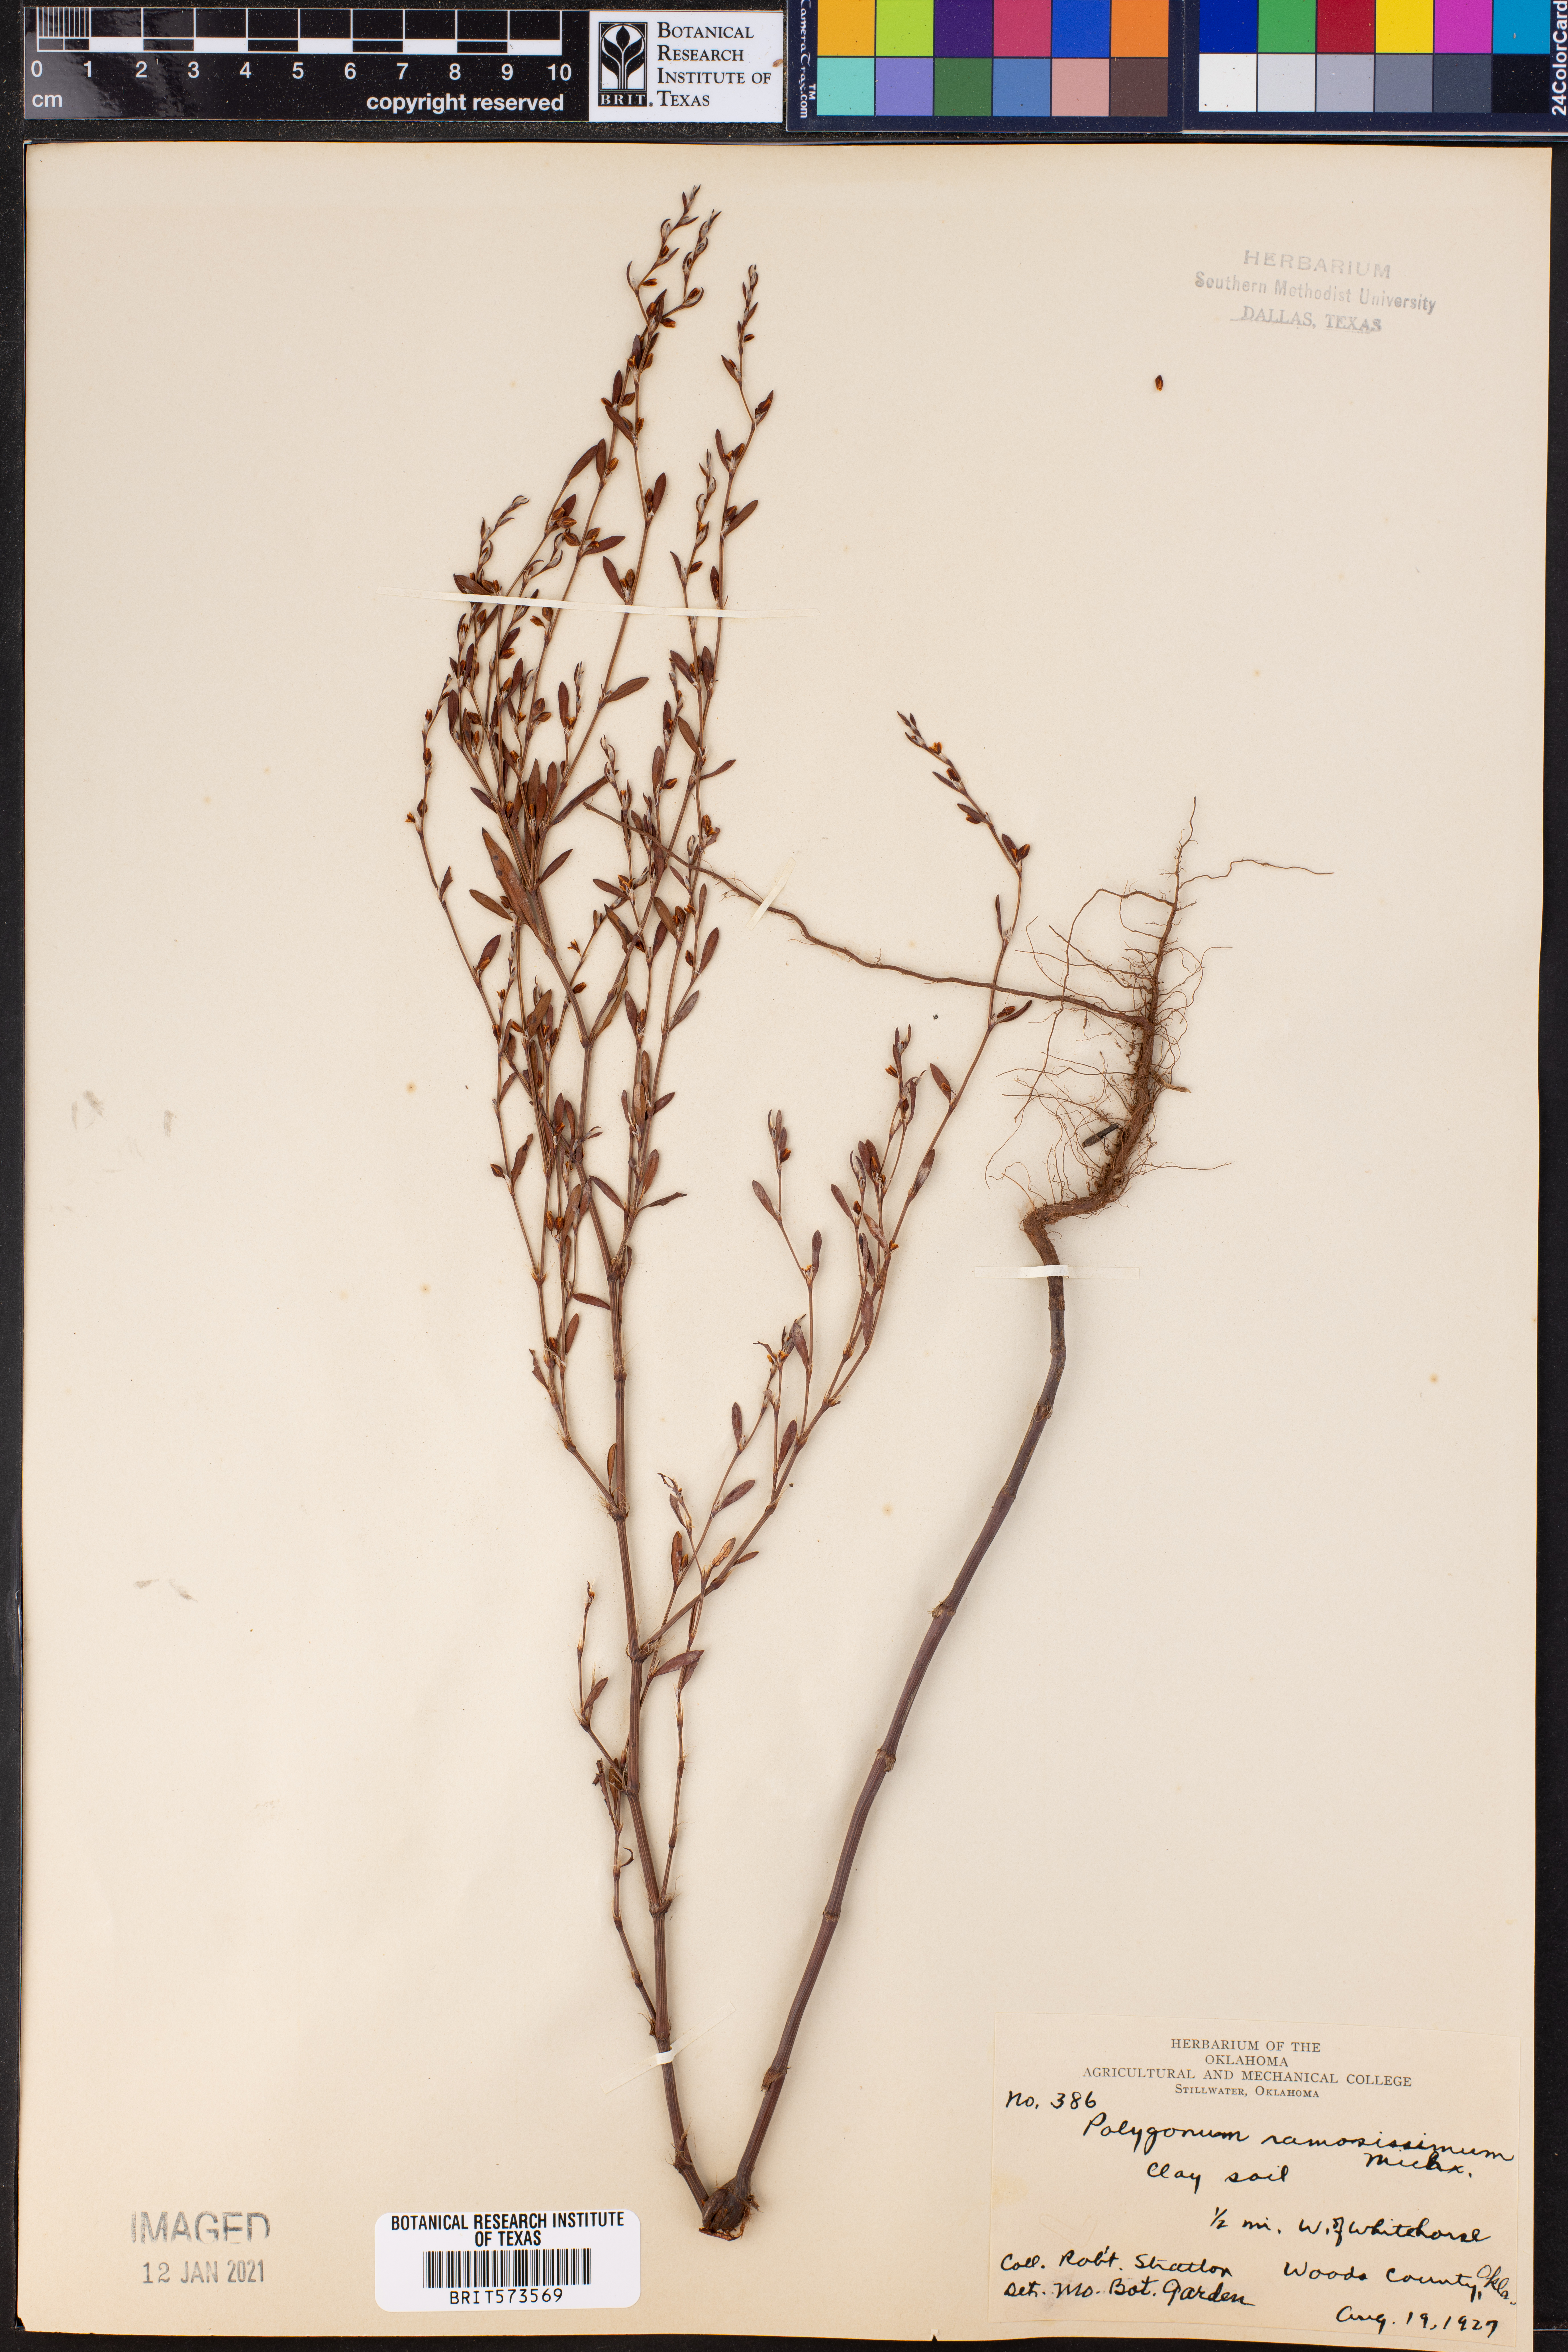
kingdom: Plantae
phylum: Tracheophyta
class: Magnoliopsida
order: Caryophyllales
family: Polygonaceae
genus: Polygonum
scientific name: Polygonum ramosissimum
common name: Bushy knotweed
